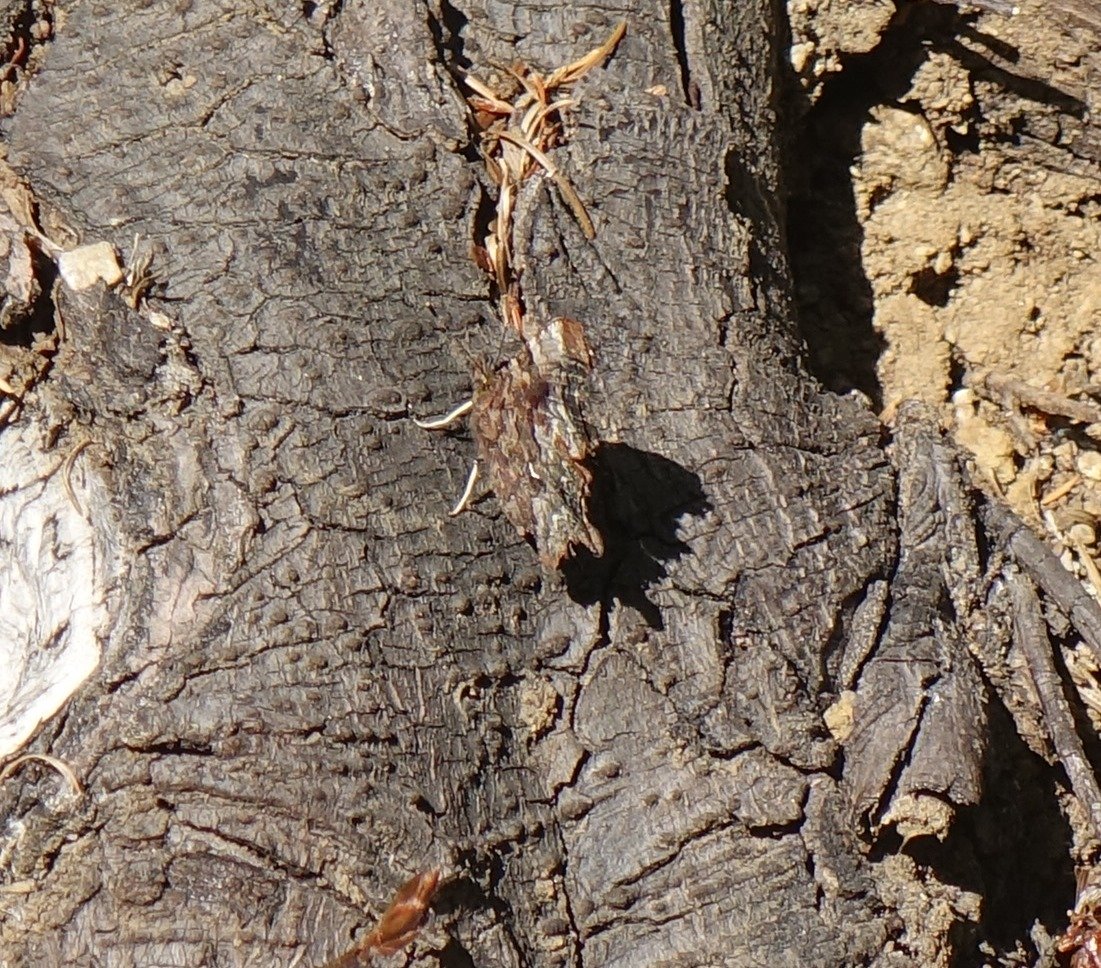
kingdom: Animalia
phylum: Arthropoda
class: Insecta
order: Lepidoptera
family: Nymphalidae
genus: Polygonia
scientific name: Polygonia faunus
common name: Green Comma
